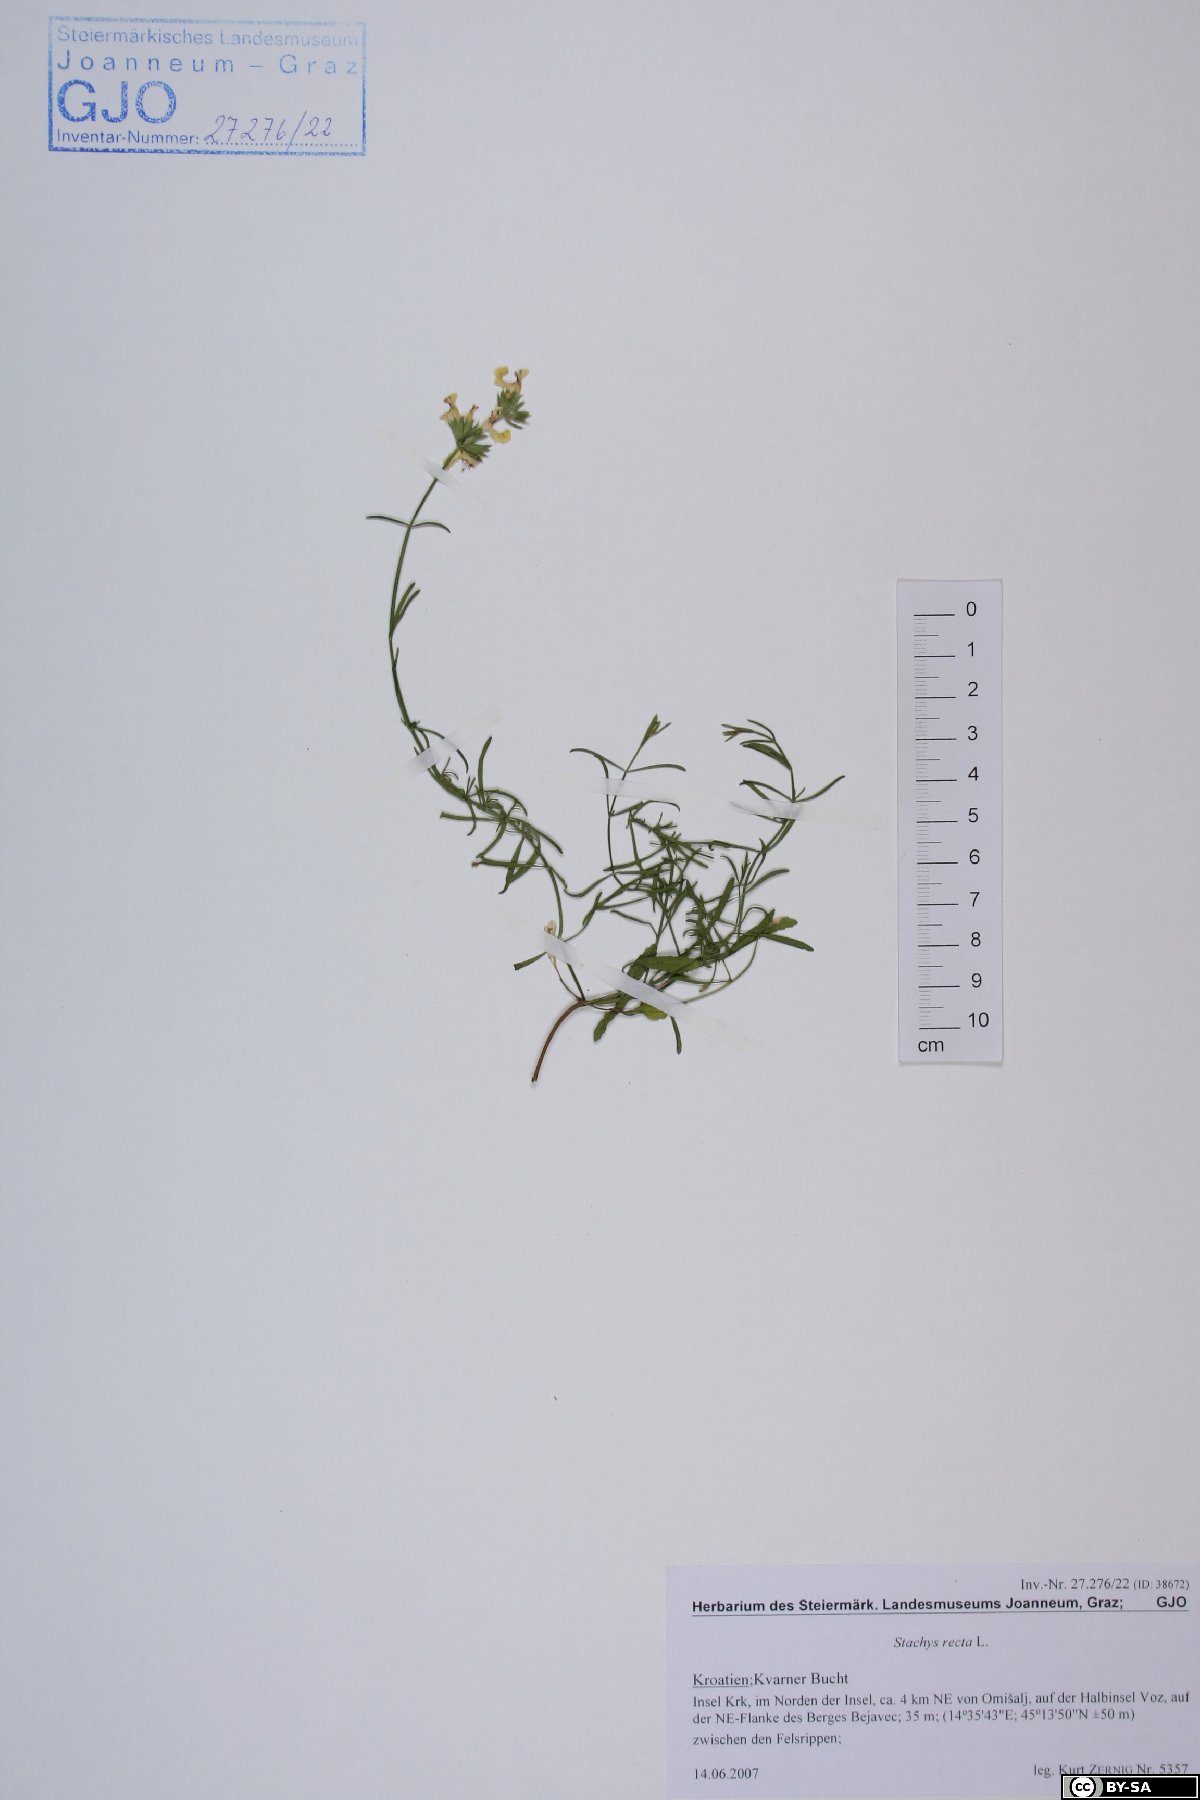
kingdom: Plantae
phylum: Tracheophyta
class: Magnoliopsida
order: Lamiales
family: Lamiaceae
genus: Stachys
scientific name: Stachys recta
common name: Perennial yellow-woundwort
